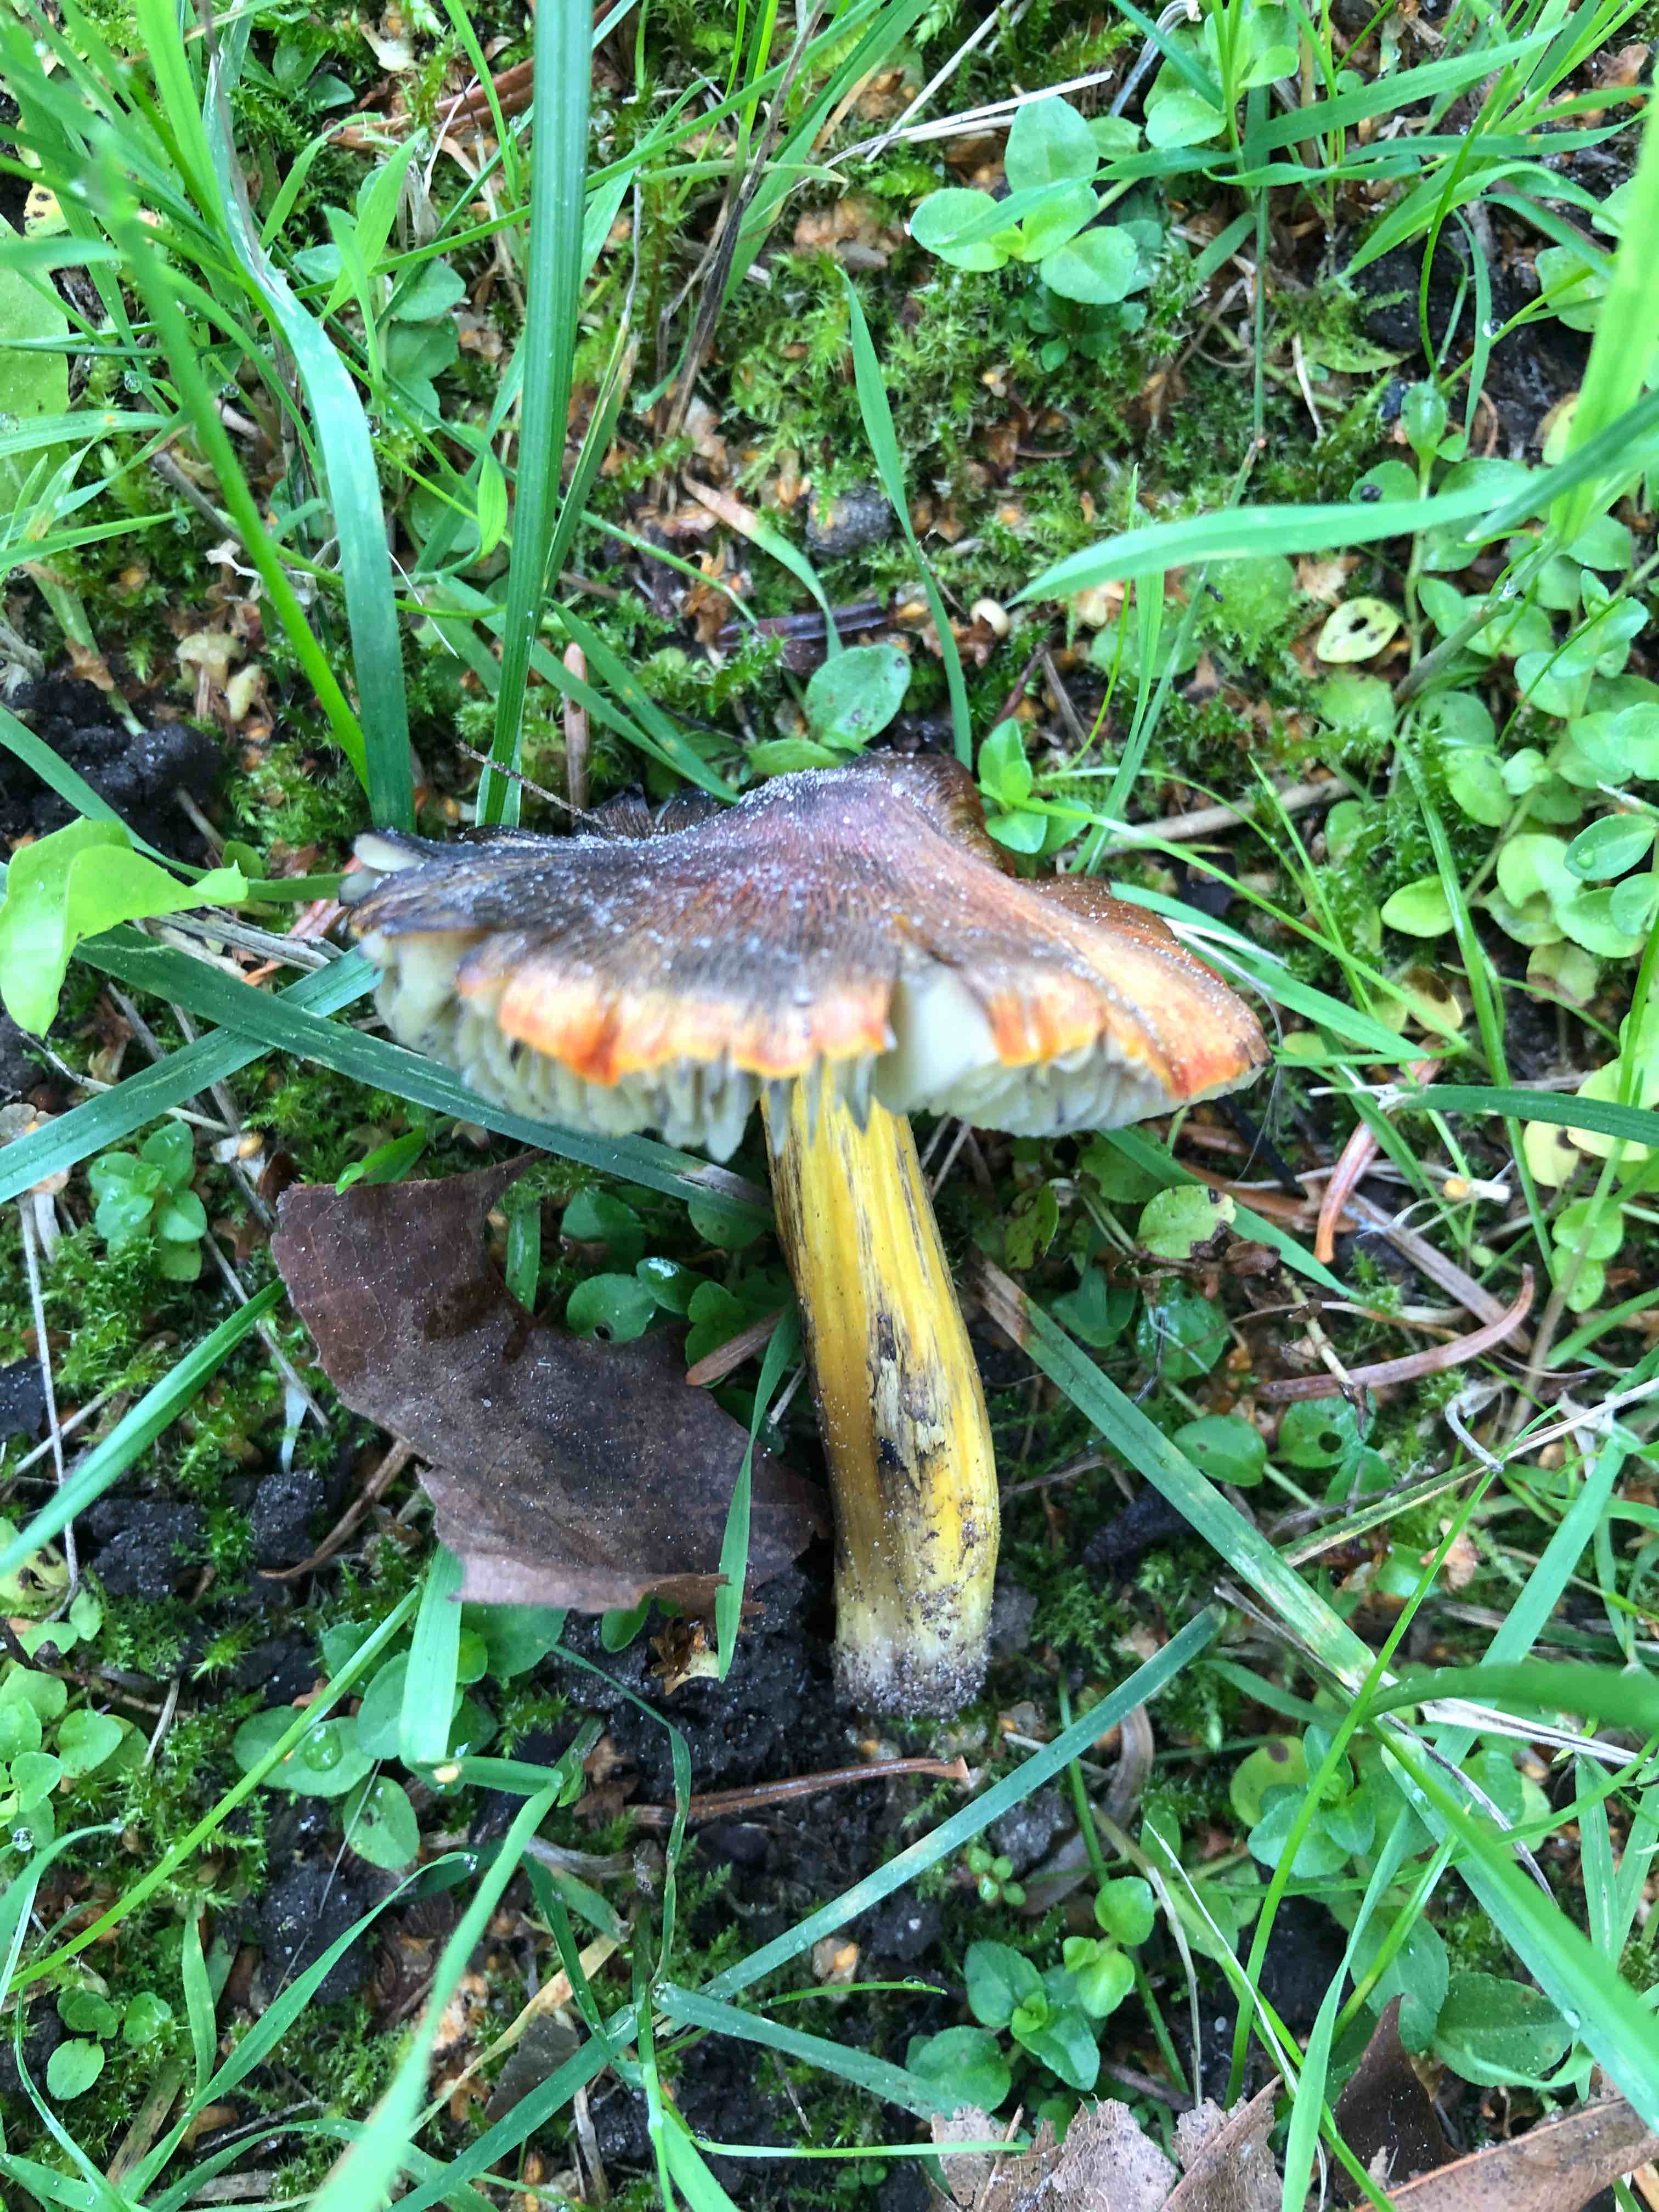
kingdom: Fungi
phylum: Basidiomycota
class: Agaricomycetes
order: Agaricales
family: Hygrophoraceae
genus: Hygrocybe
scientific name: Hygrocybe conica
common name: kegle-vokshat
